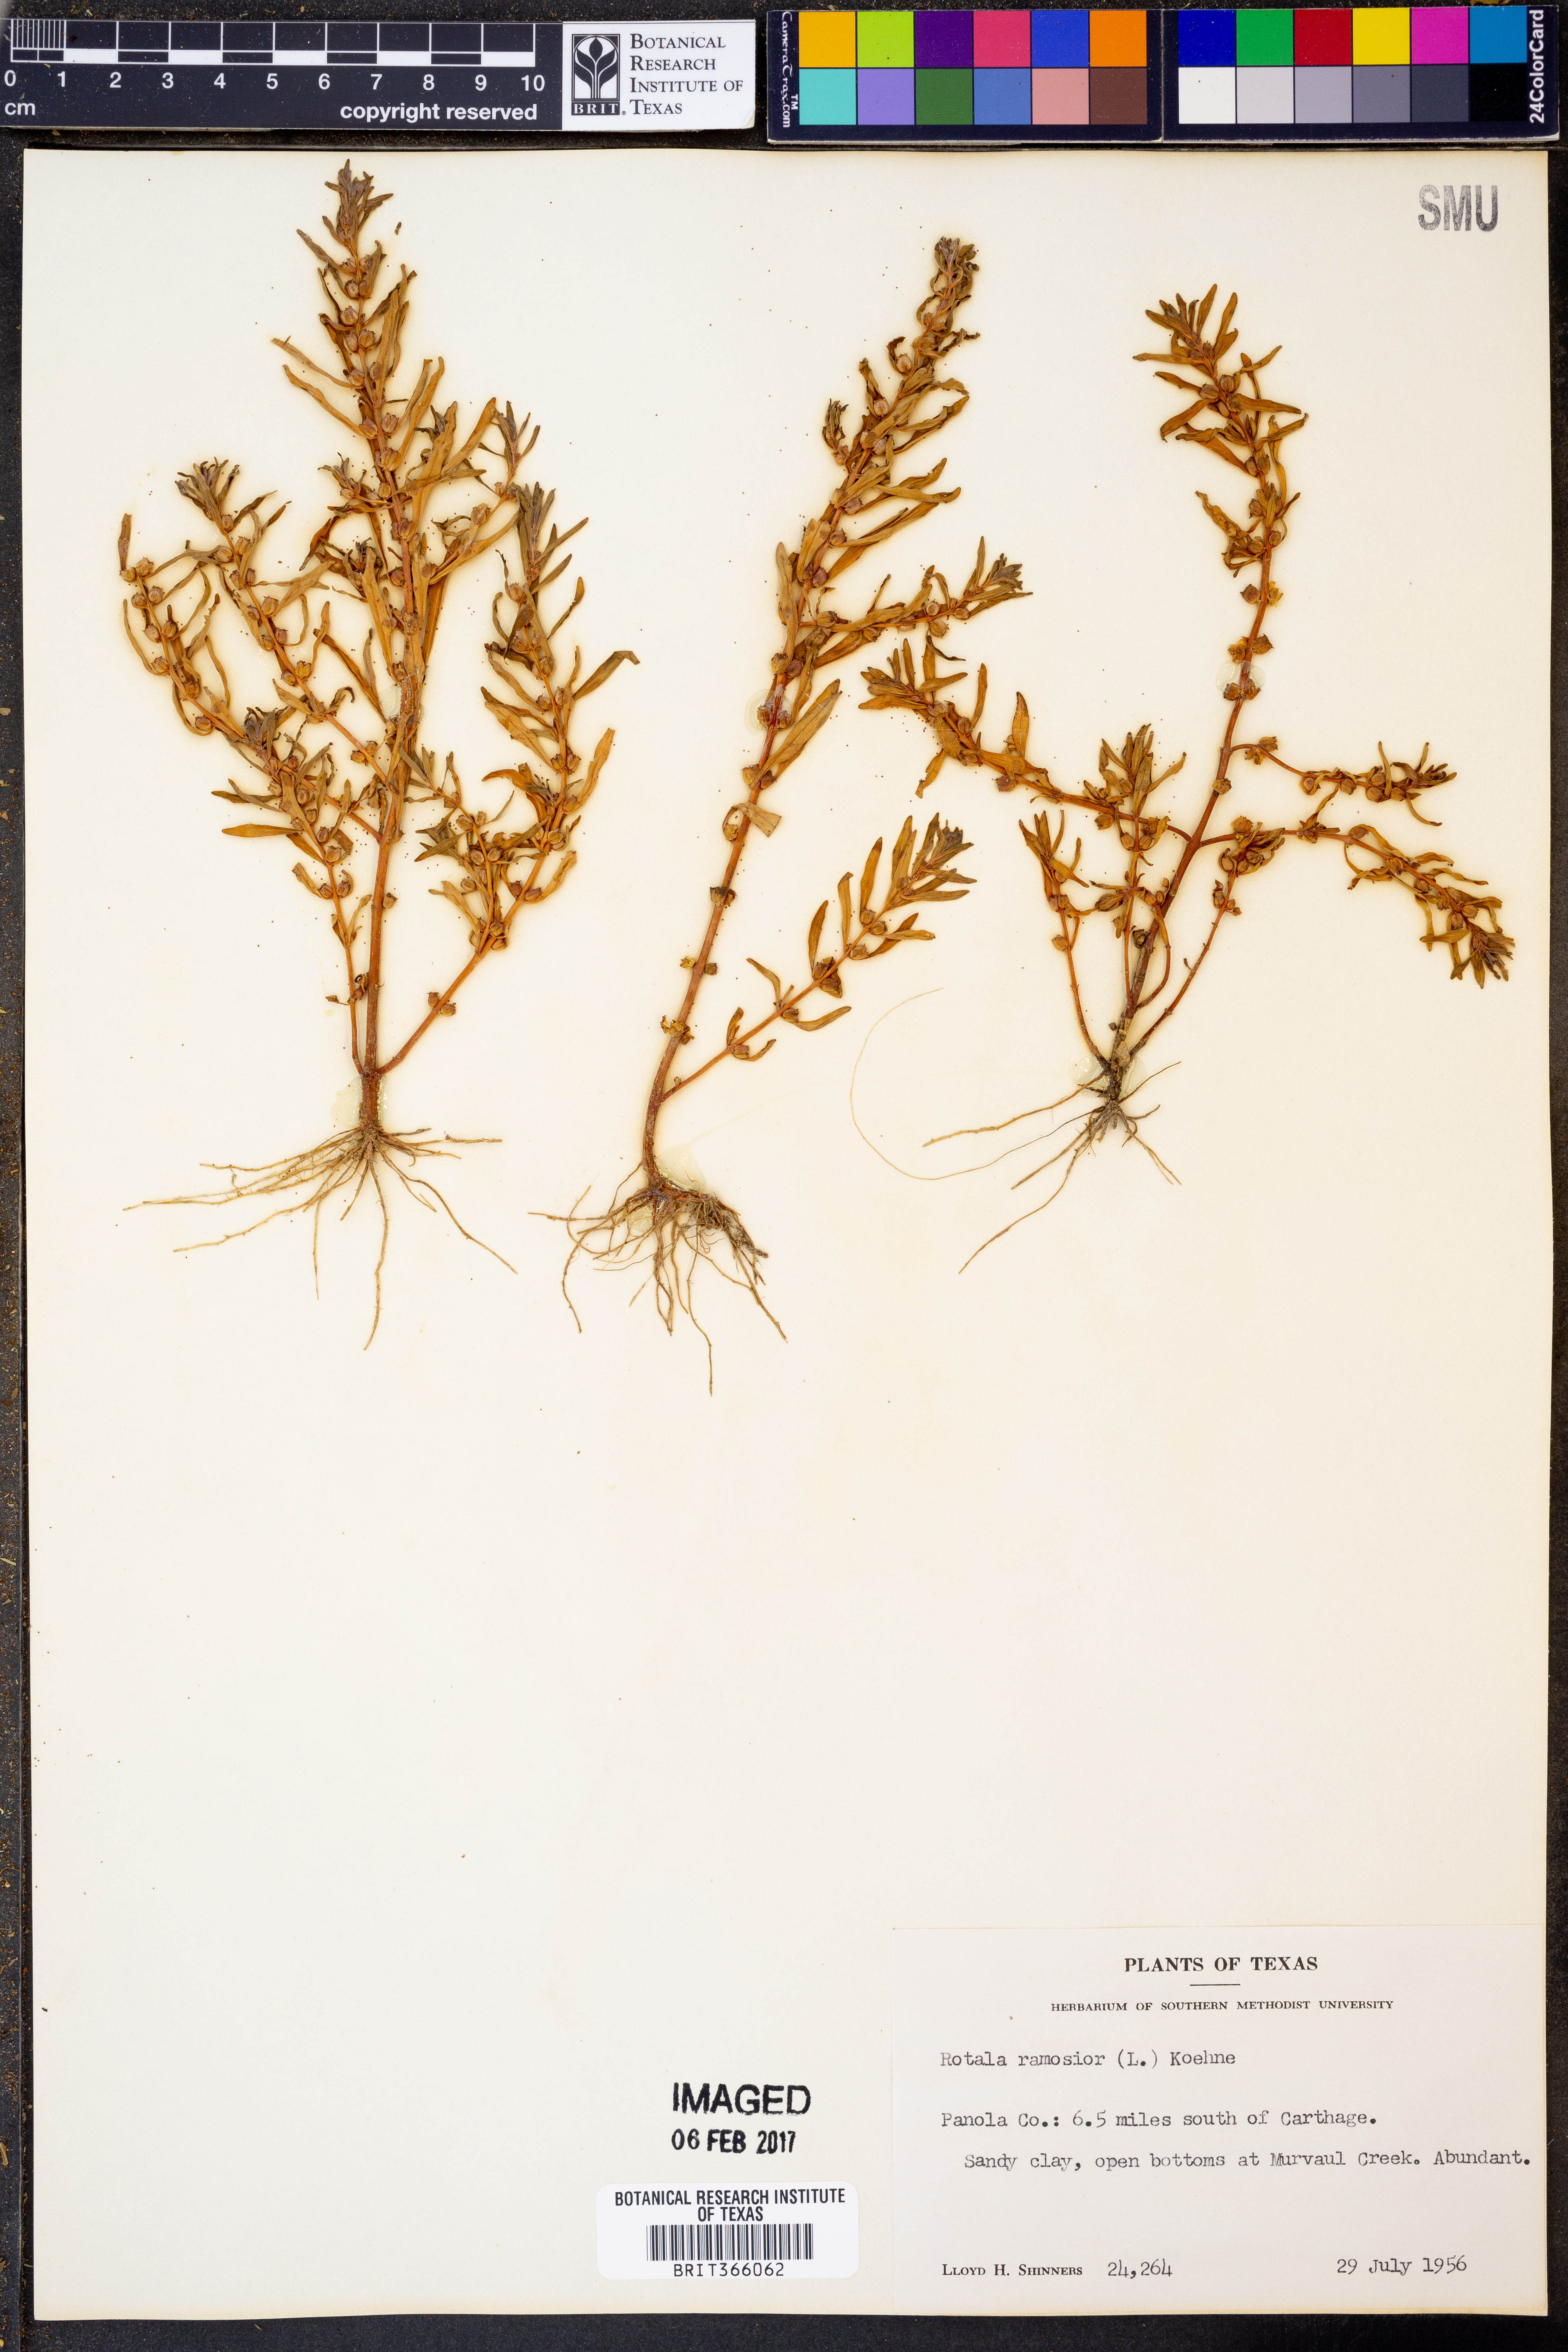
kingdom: Plantae
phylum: Tracheophyta
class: Magnoliopsida
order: Myrtales
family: Lythraceae
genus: Rotala
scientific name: Rotala ramosior
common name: Lowland rotala
